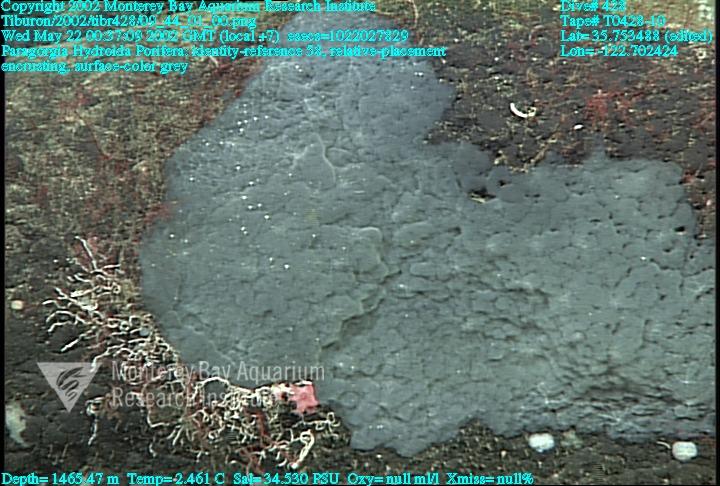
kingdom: Animalia
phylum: Porifera
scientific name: Porifera
